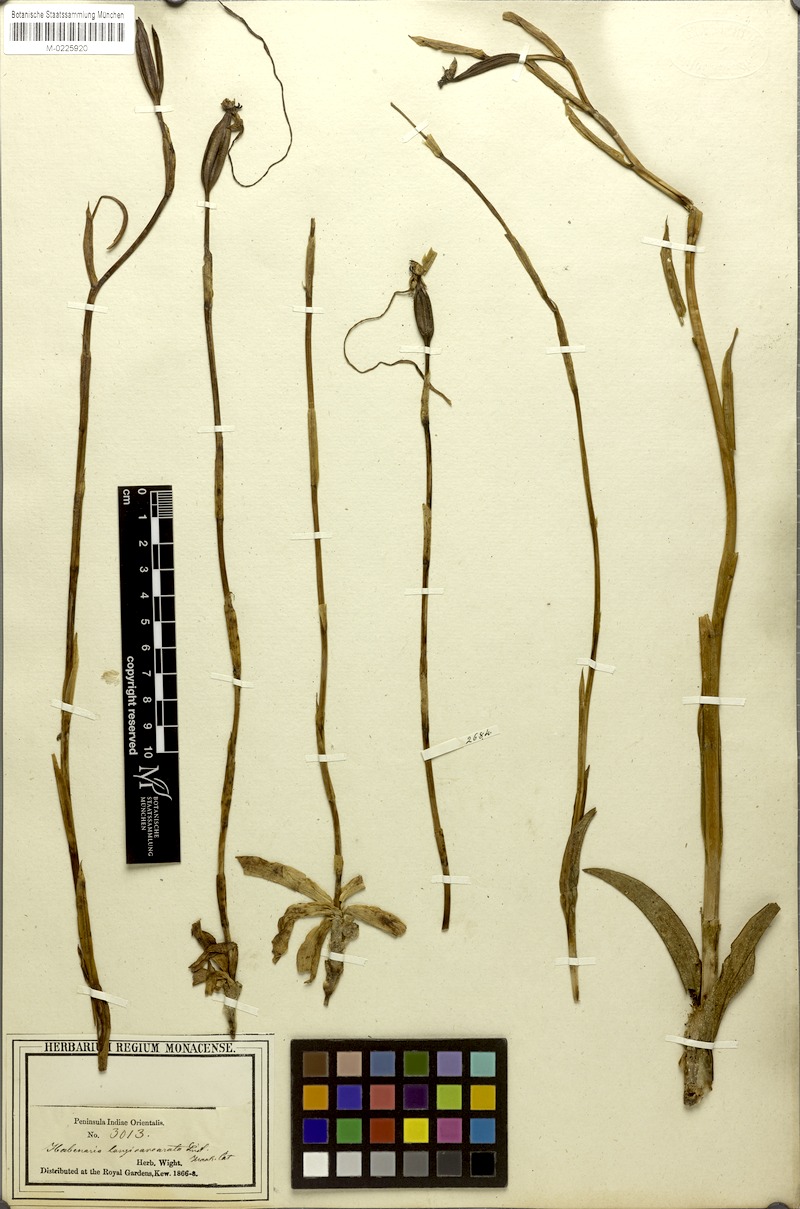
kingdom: Plantae
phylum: Tracheophyta
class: Liliopsida
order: Asparagales
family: Orchidaceae
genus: Habenaria
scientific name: Habenaria longicorniculata
